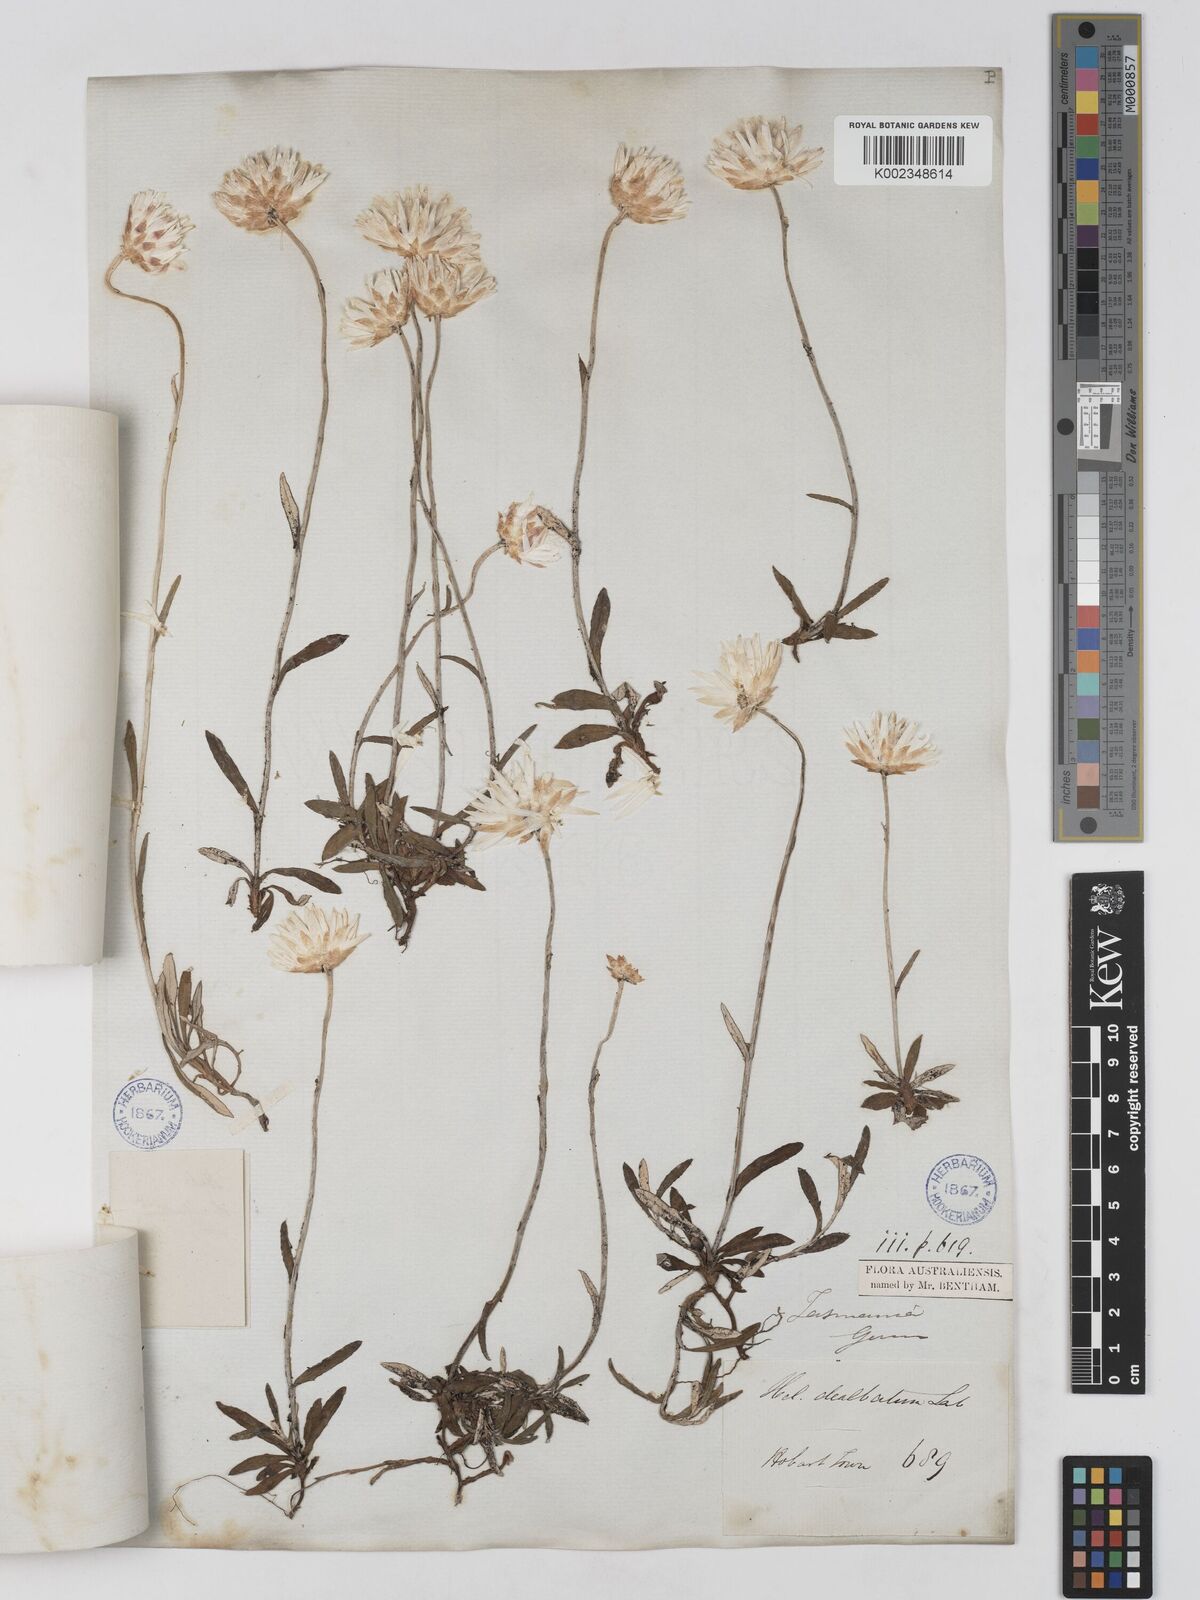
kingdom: Plantae
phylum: Tracheophyta
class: Magnoliopsida
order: Asterales
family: Asteraceae
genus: Argentipallium
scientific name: Argentipallium dealbatum
